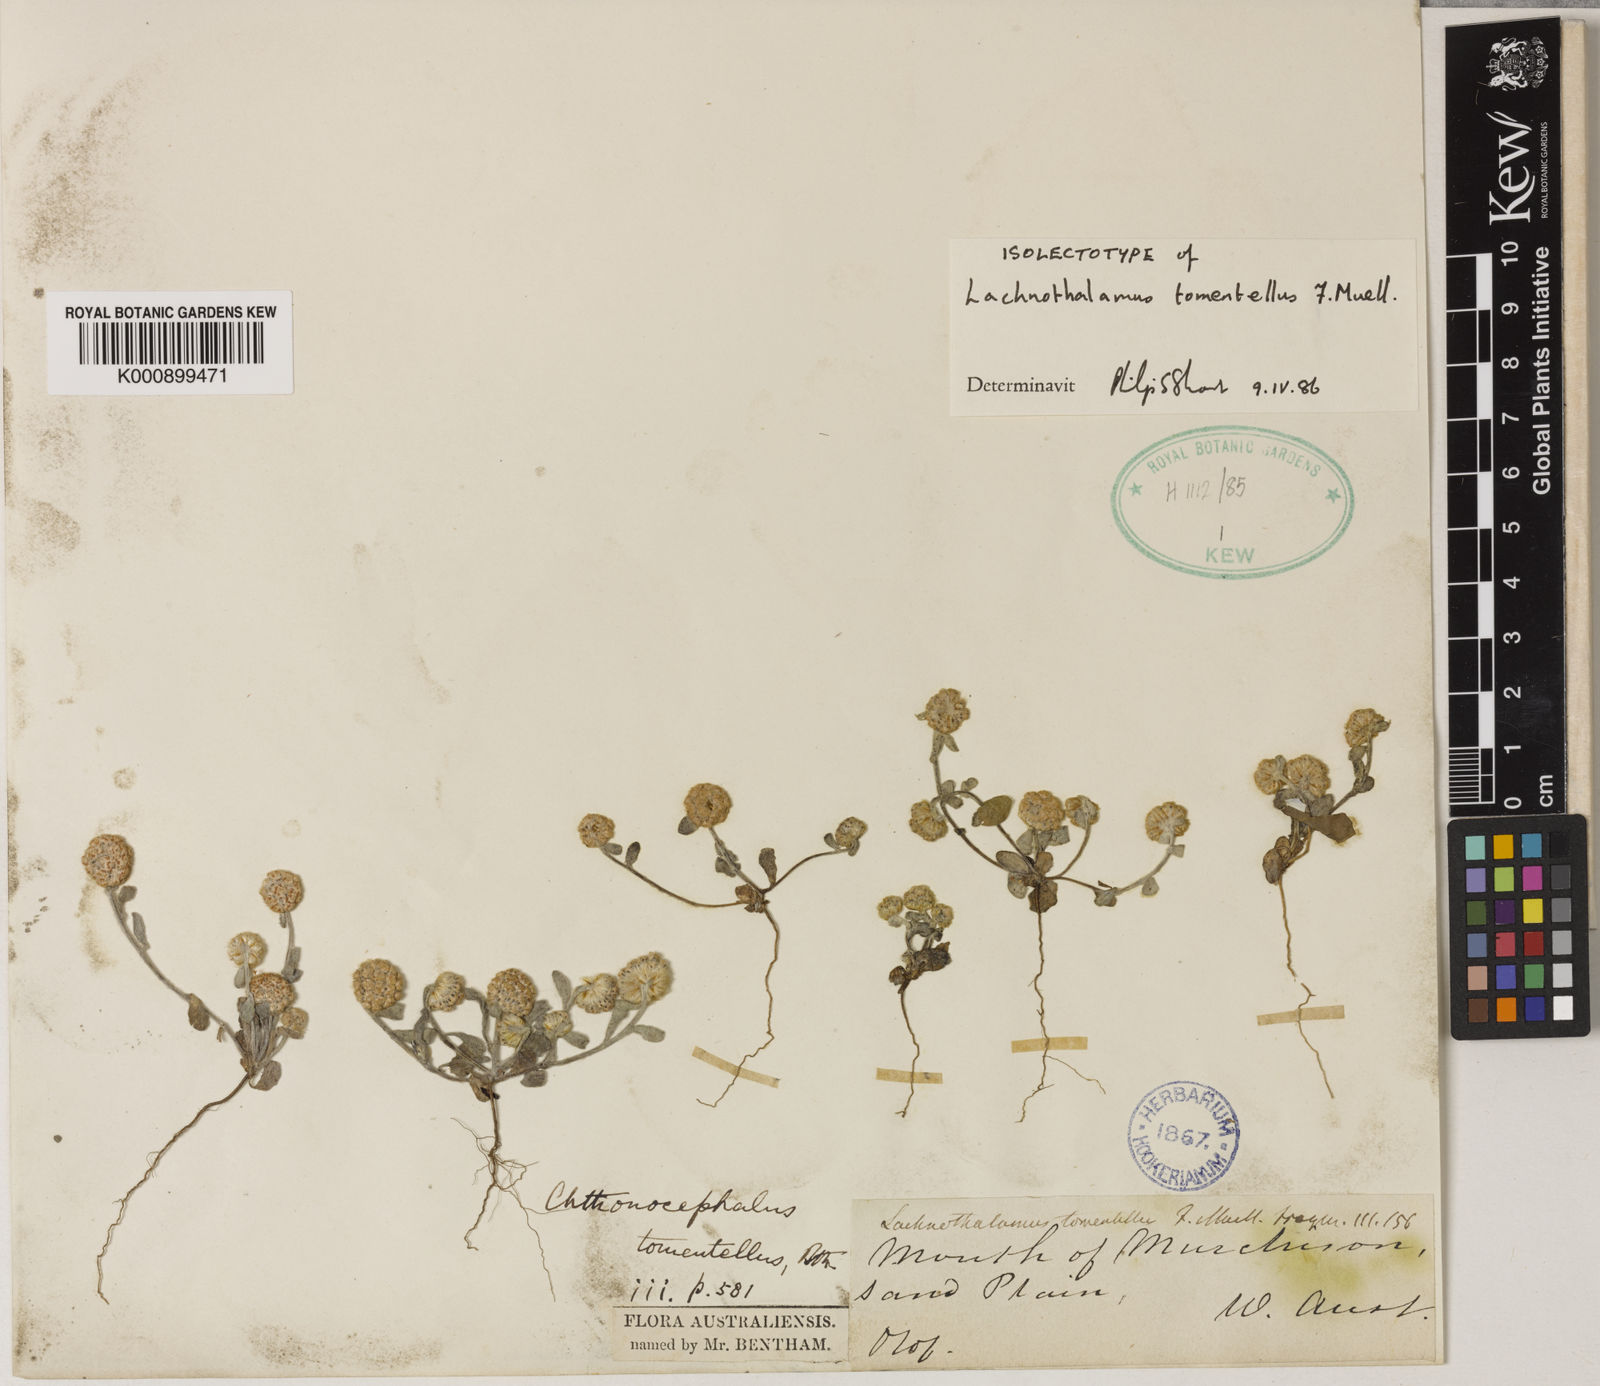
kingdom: Plantae
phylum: Tracheophyta
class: Magnoliopsida
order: Asterales
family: Asteraceae
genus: Chthonocephalus
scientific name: Chthonocephalus tomentellus
